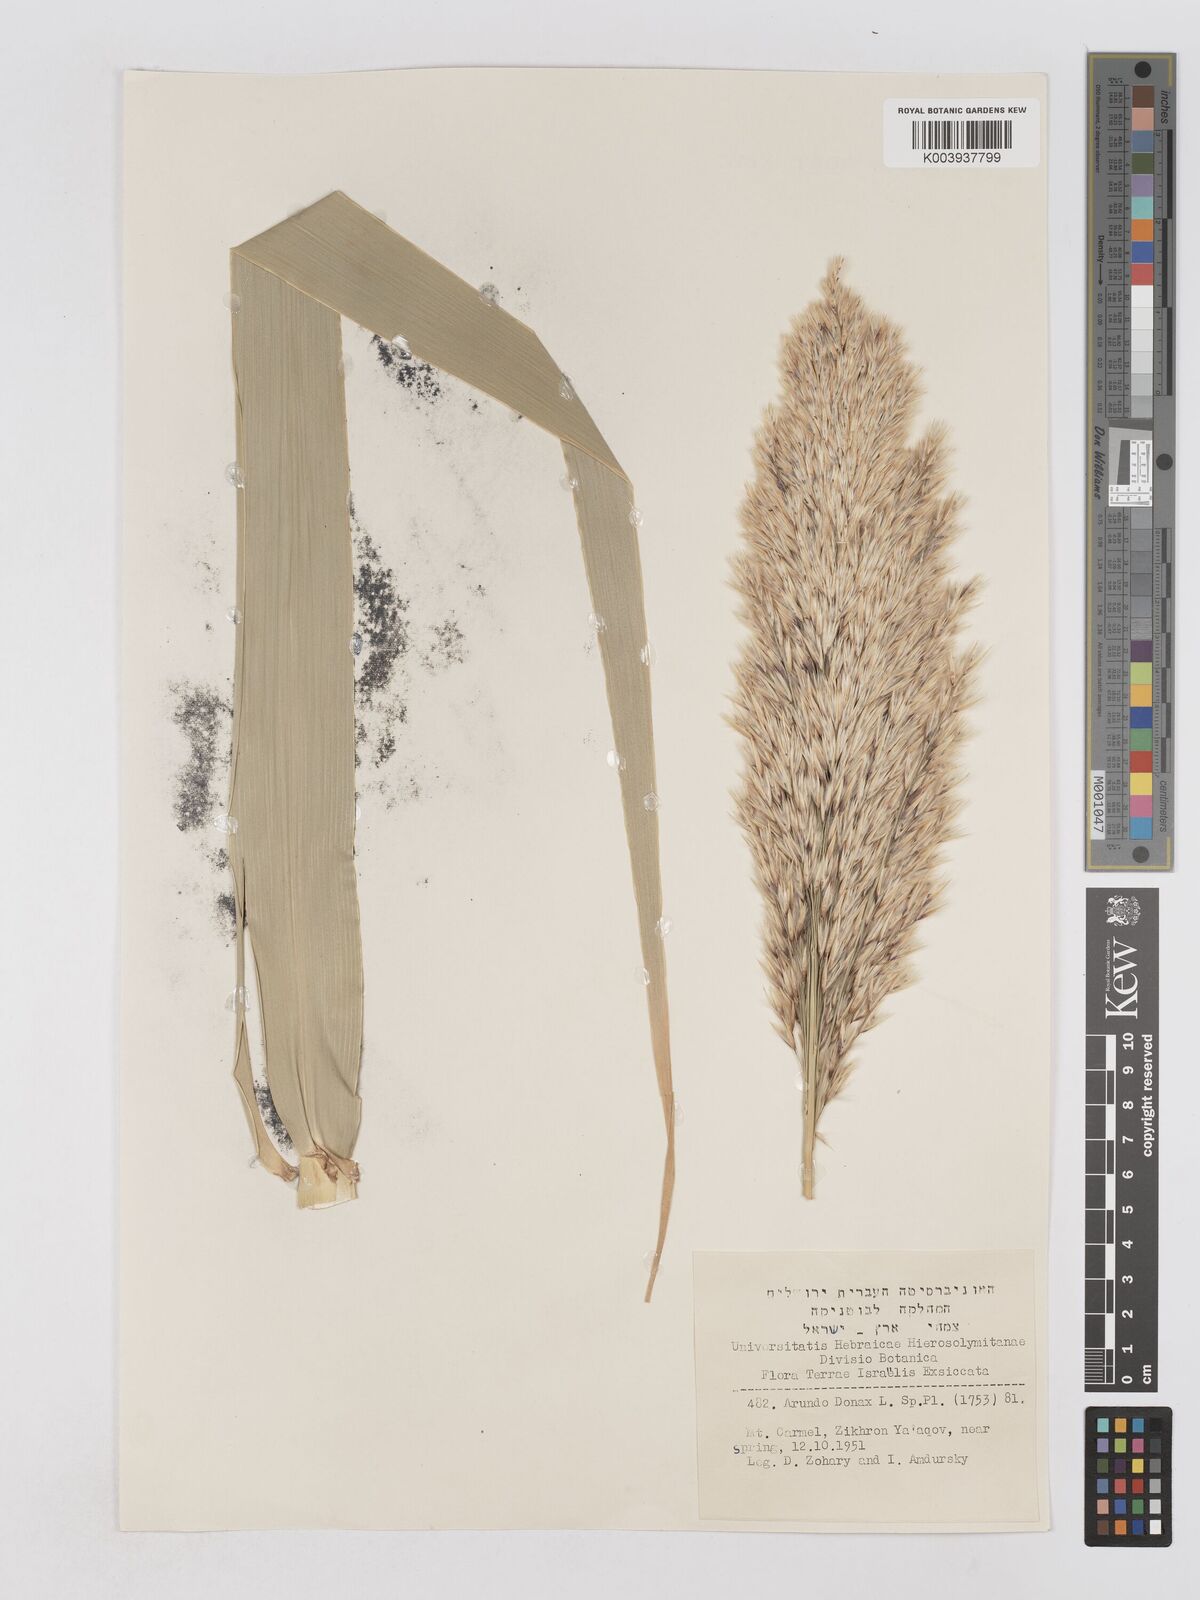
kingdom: Plantae
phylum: Tracheophyta
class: Liliopsida
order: Poales
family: Poaceae
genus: Arundo
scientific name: Arundo donax
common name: Giant reed
